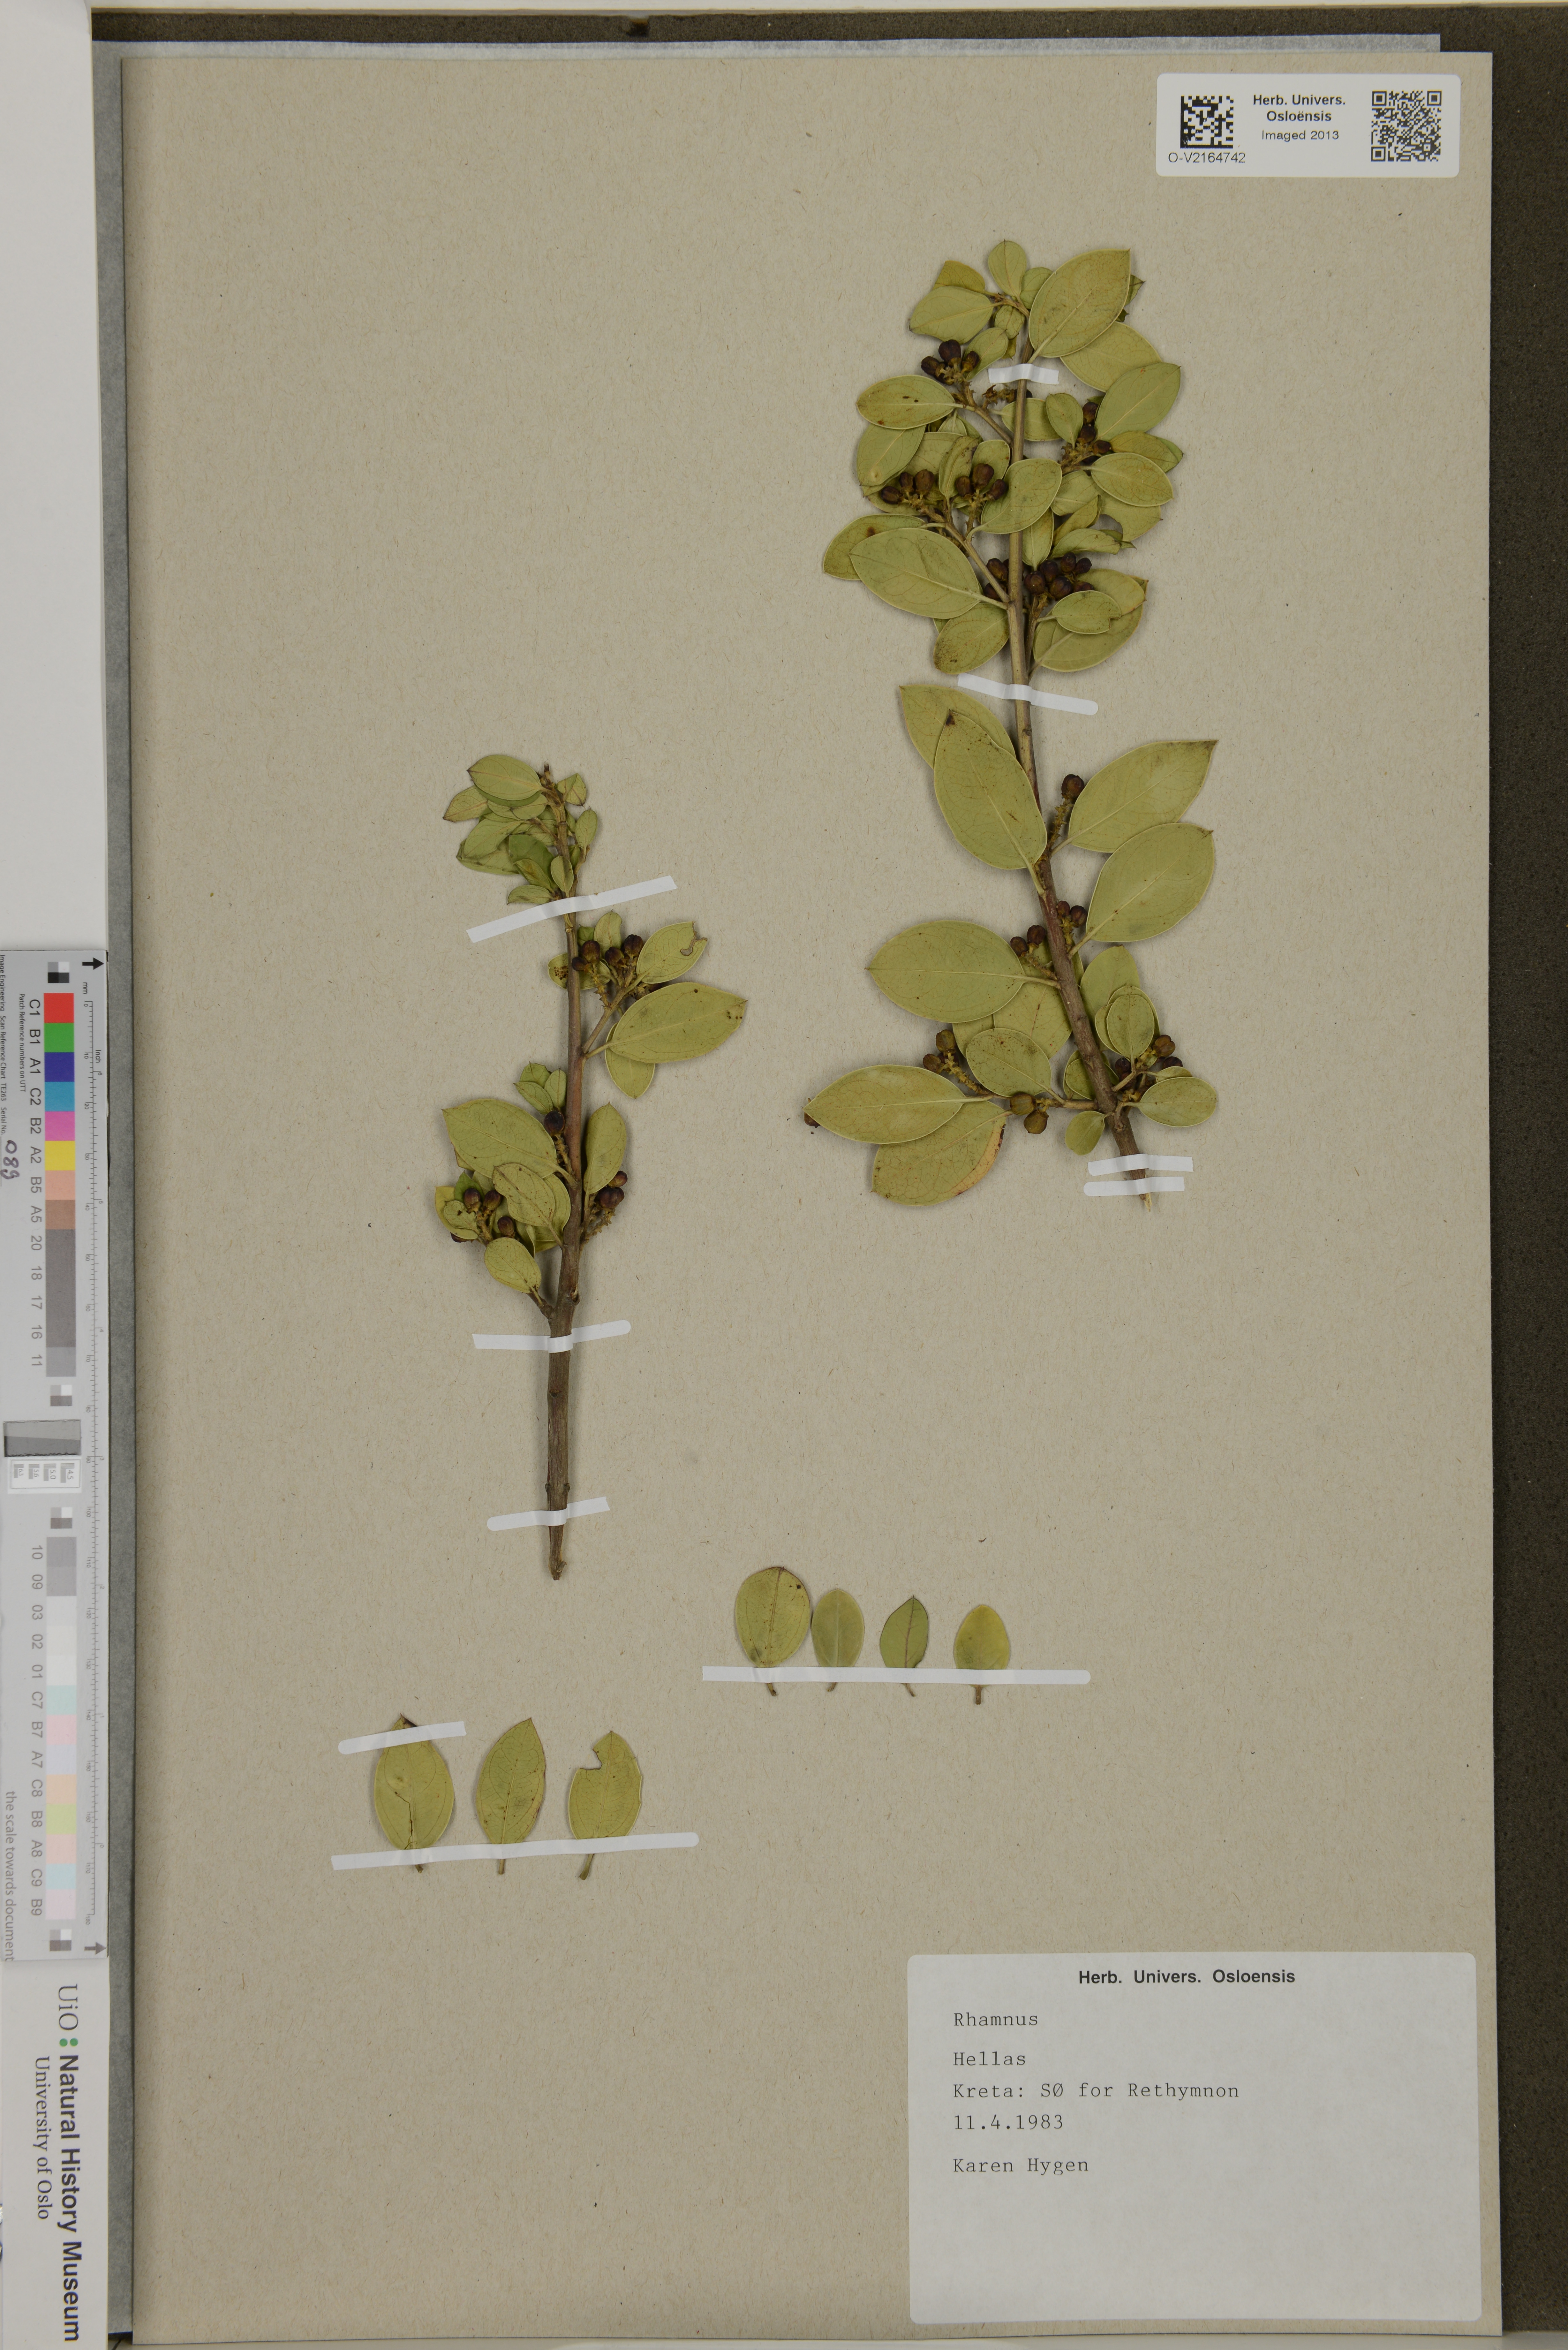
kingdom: Plantae
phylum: Tracheophyta
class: Magnoliopsida
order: Rosales
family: Rhamnaceae
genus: Rhamnus
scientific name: Rhamnus
